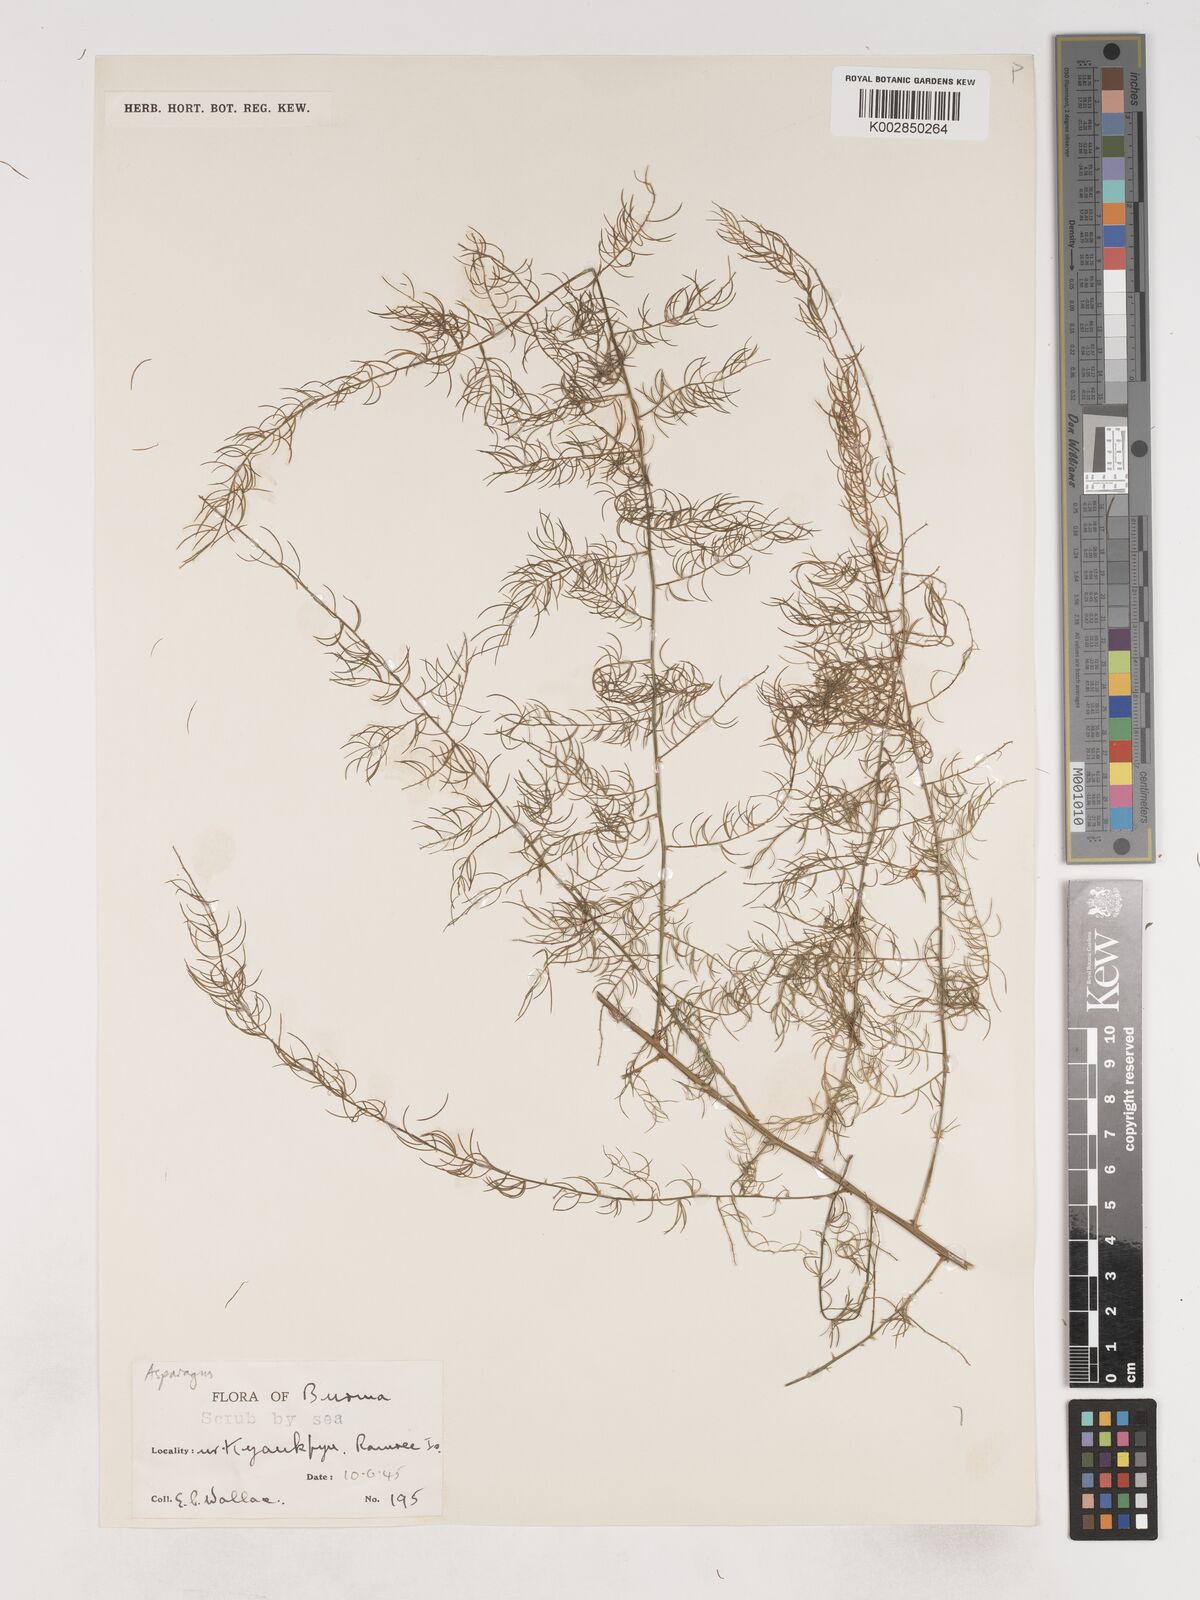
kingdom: Plantae
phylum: Tracheophyta
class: Liliopsida
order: Asparagales
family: Asparagaceae
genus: Asparagus
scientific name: Asparagus
